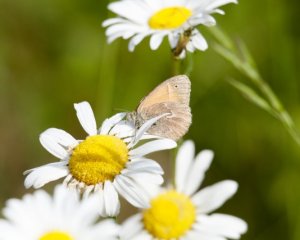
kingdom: Animalia
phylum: Arthropoda
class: Insecta
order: Lepidoptera
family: Nymphalidae
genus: Coenonympha
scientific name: Coenonympha tullia
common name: Large Heath
